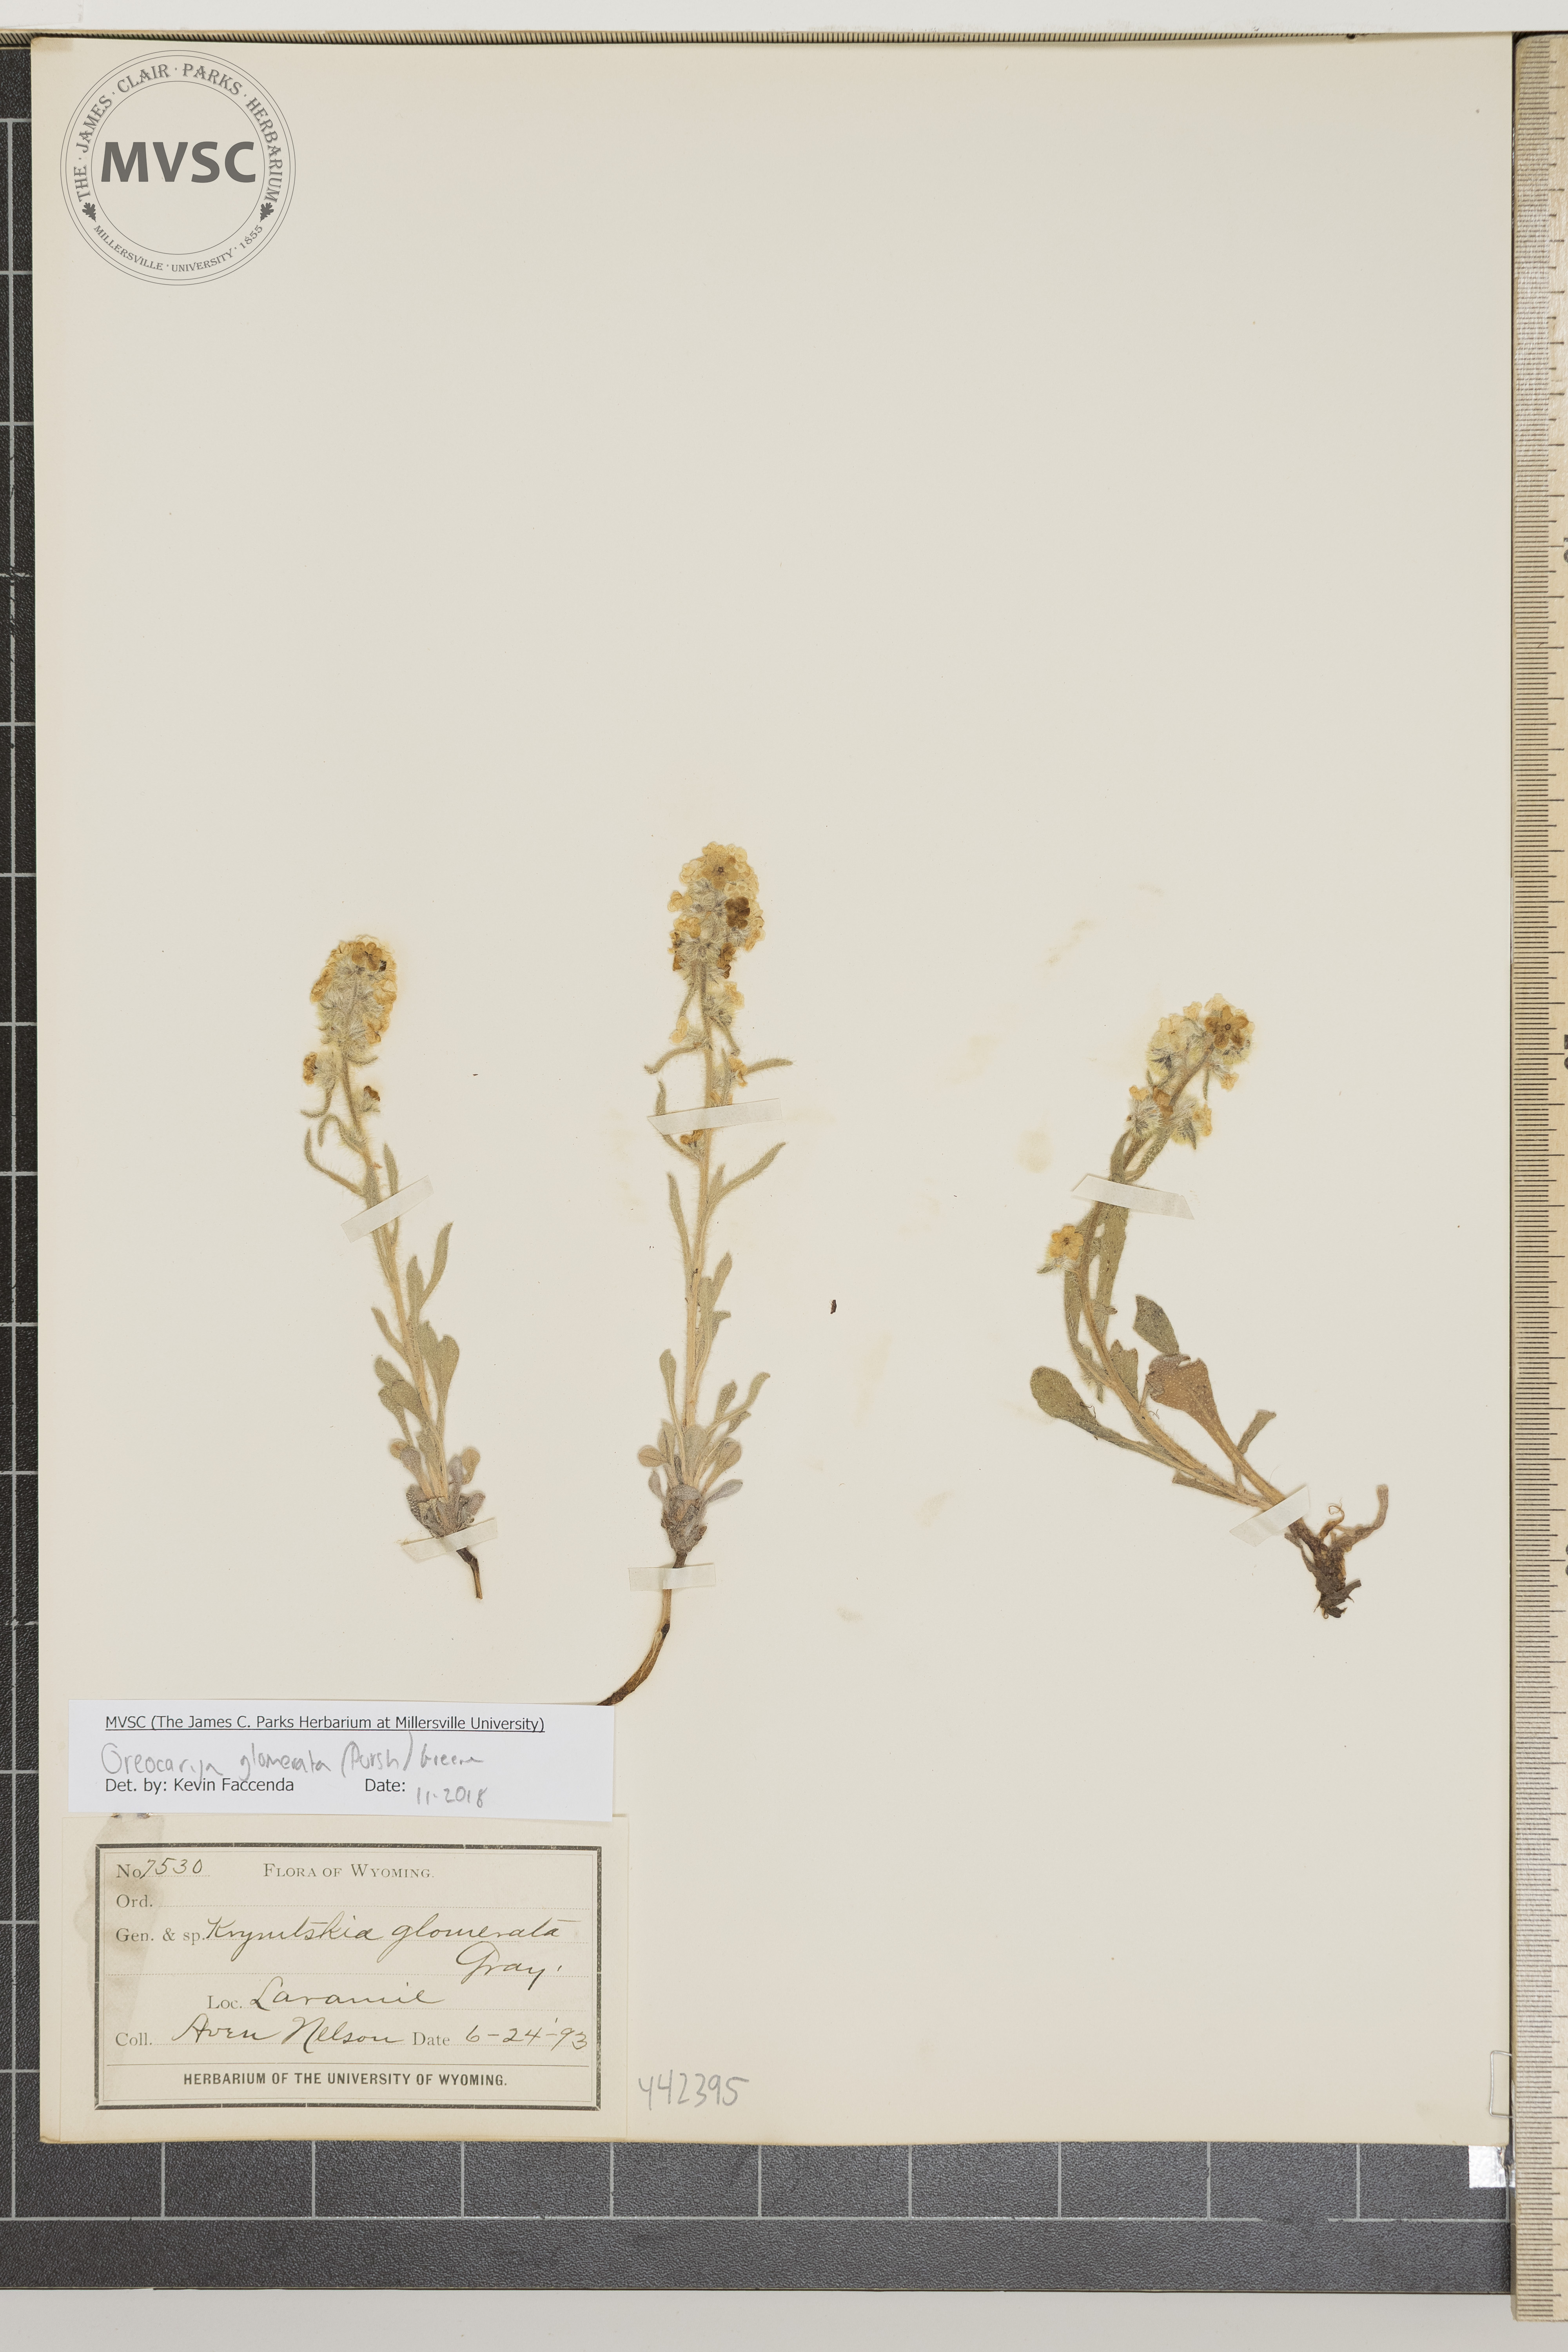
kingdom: Plantae
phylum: Tracheophyta
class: Magnoliopsida
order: Boraginales
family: Boraginaceae
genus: Oreocarya
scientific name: Oreocarya glomerata
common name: Macoun's cryptantha
